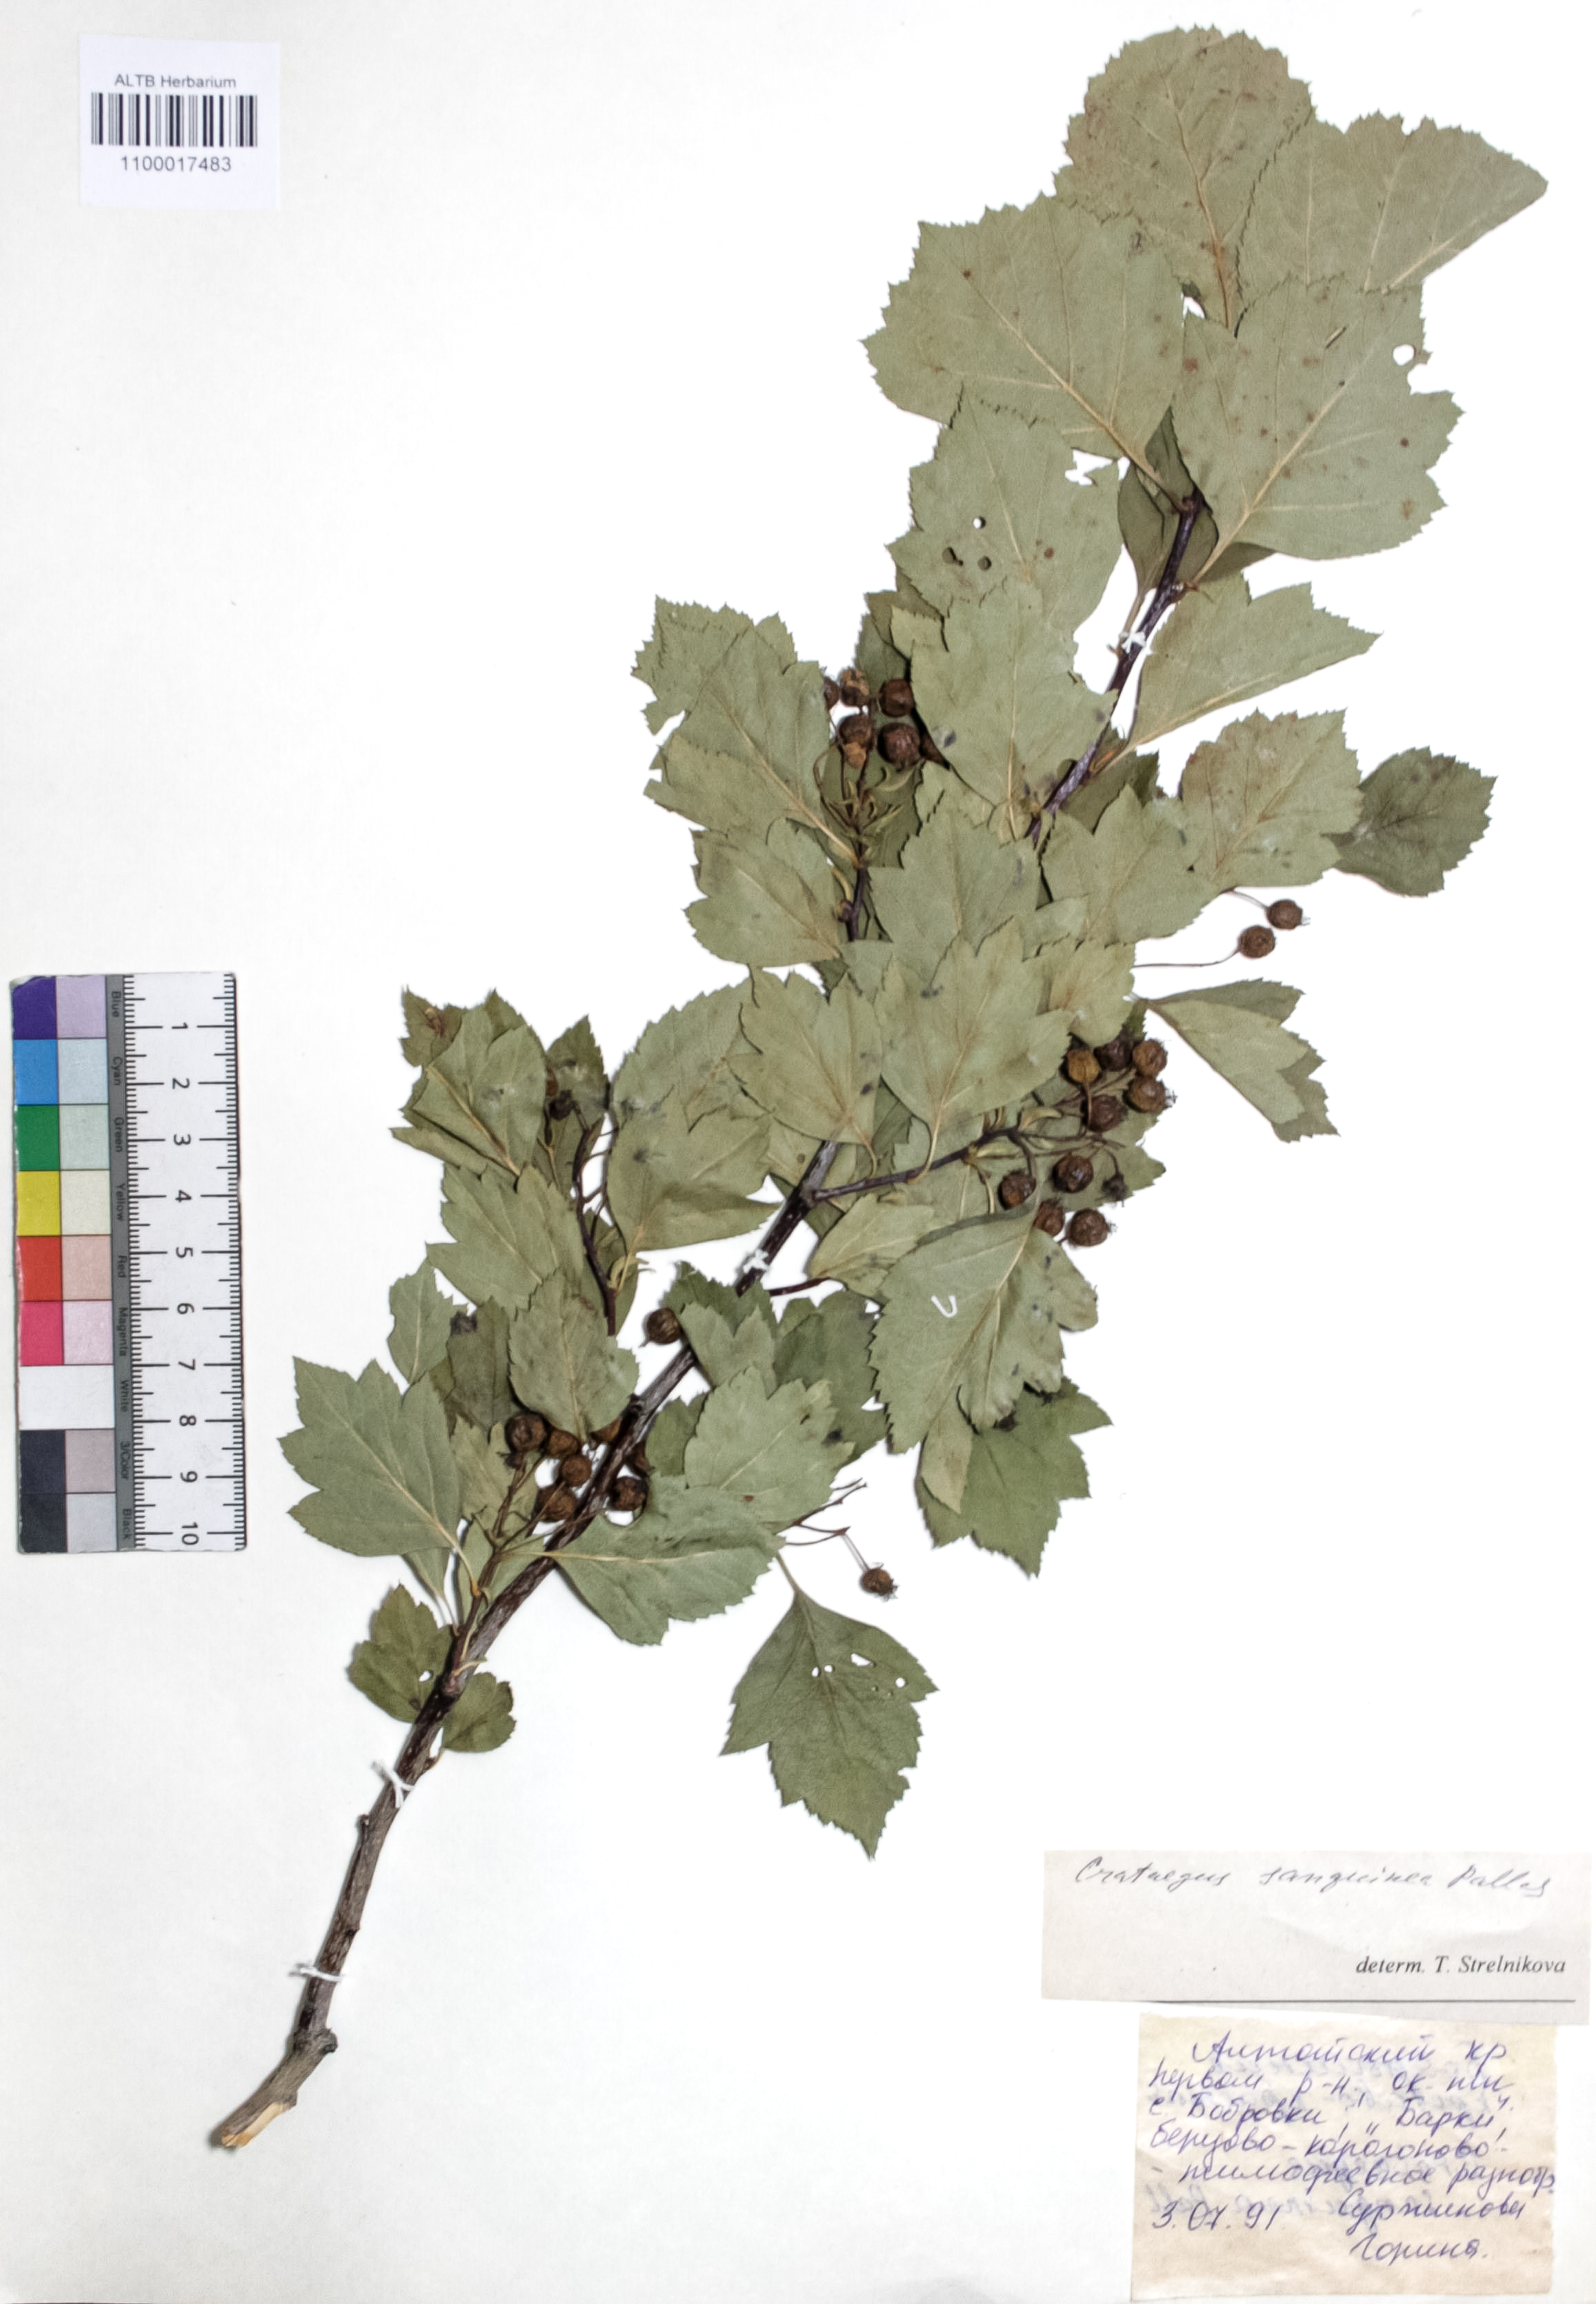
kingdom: Plantae
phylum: Tracheophyta
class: Magnoliopsida
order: Rosales
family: Rosaceae
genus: Crataegus
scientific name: Crataegus sanguinea
